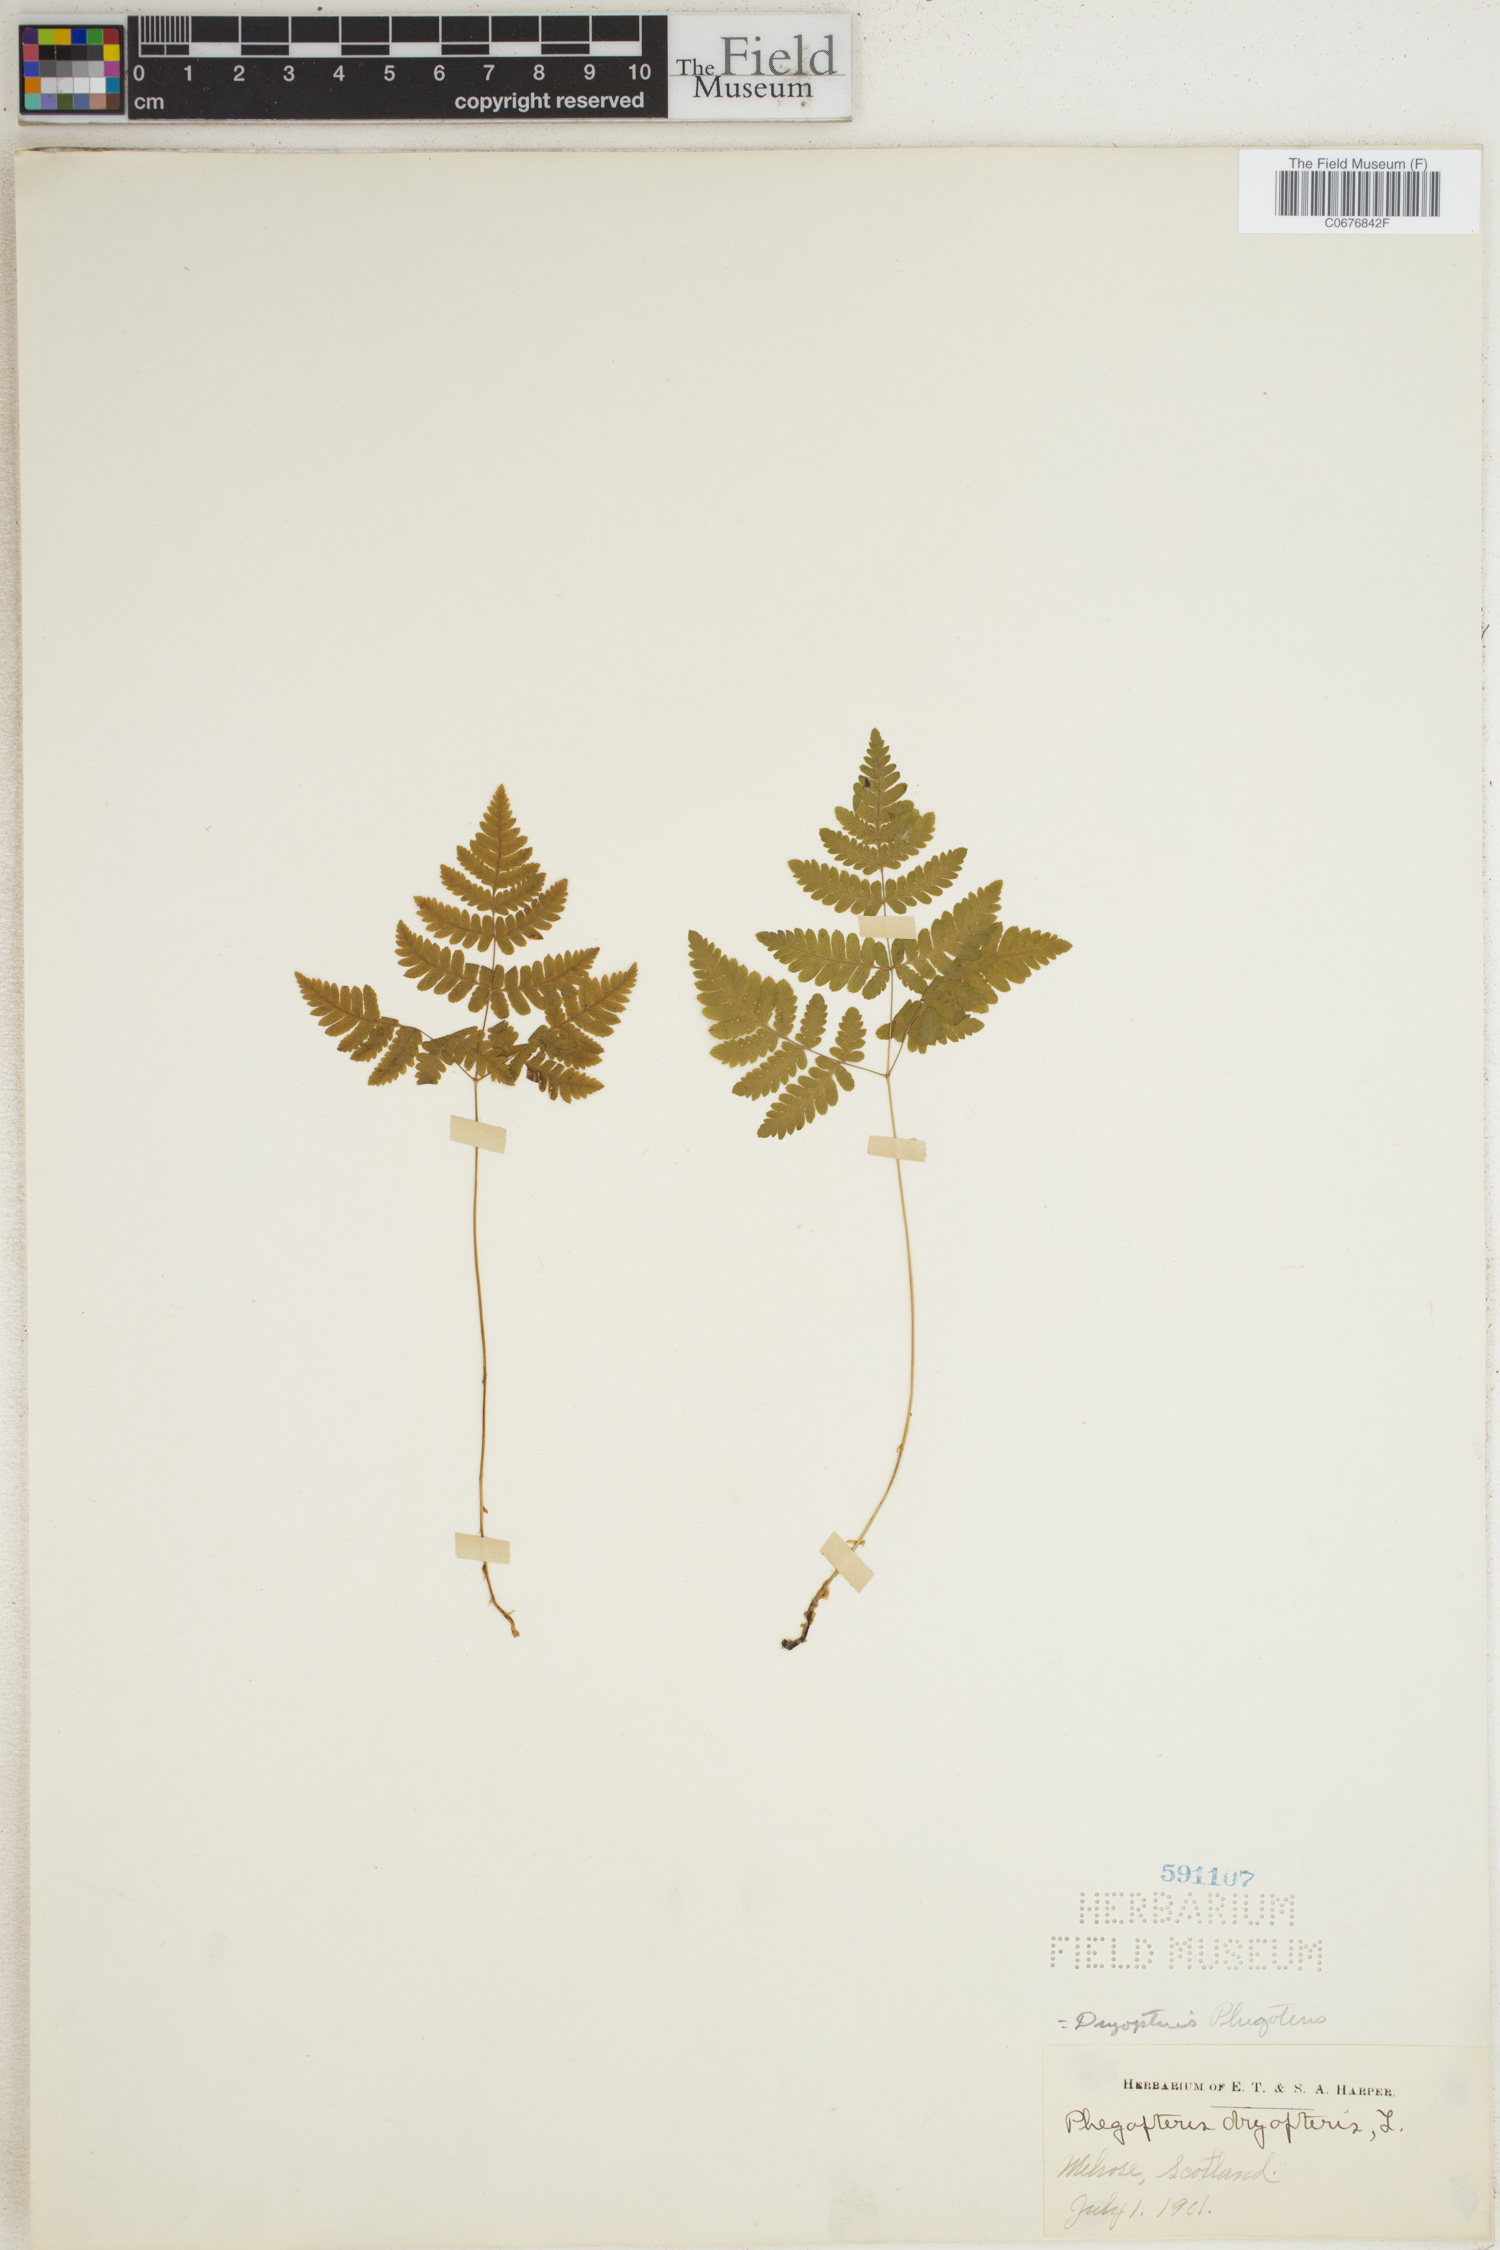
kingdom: Plantae
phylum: Tracheophyta
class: Polypodiopsida
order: Polypodiales
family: Thelypteridaceae
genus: Phegopteris
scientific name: Phegopteris connectilis
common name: Beech fern
